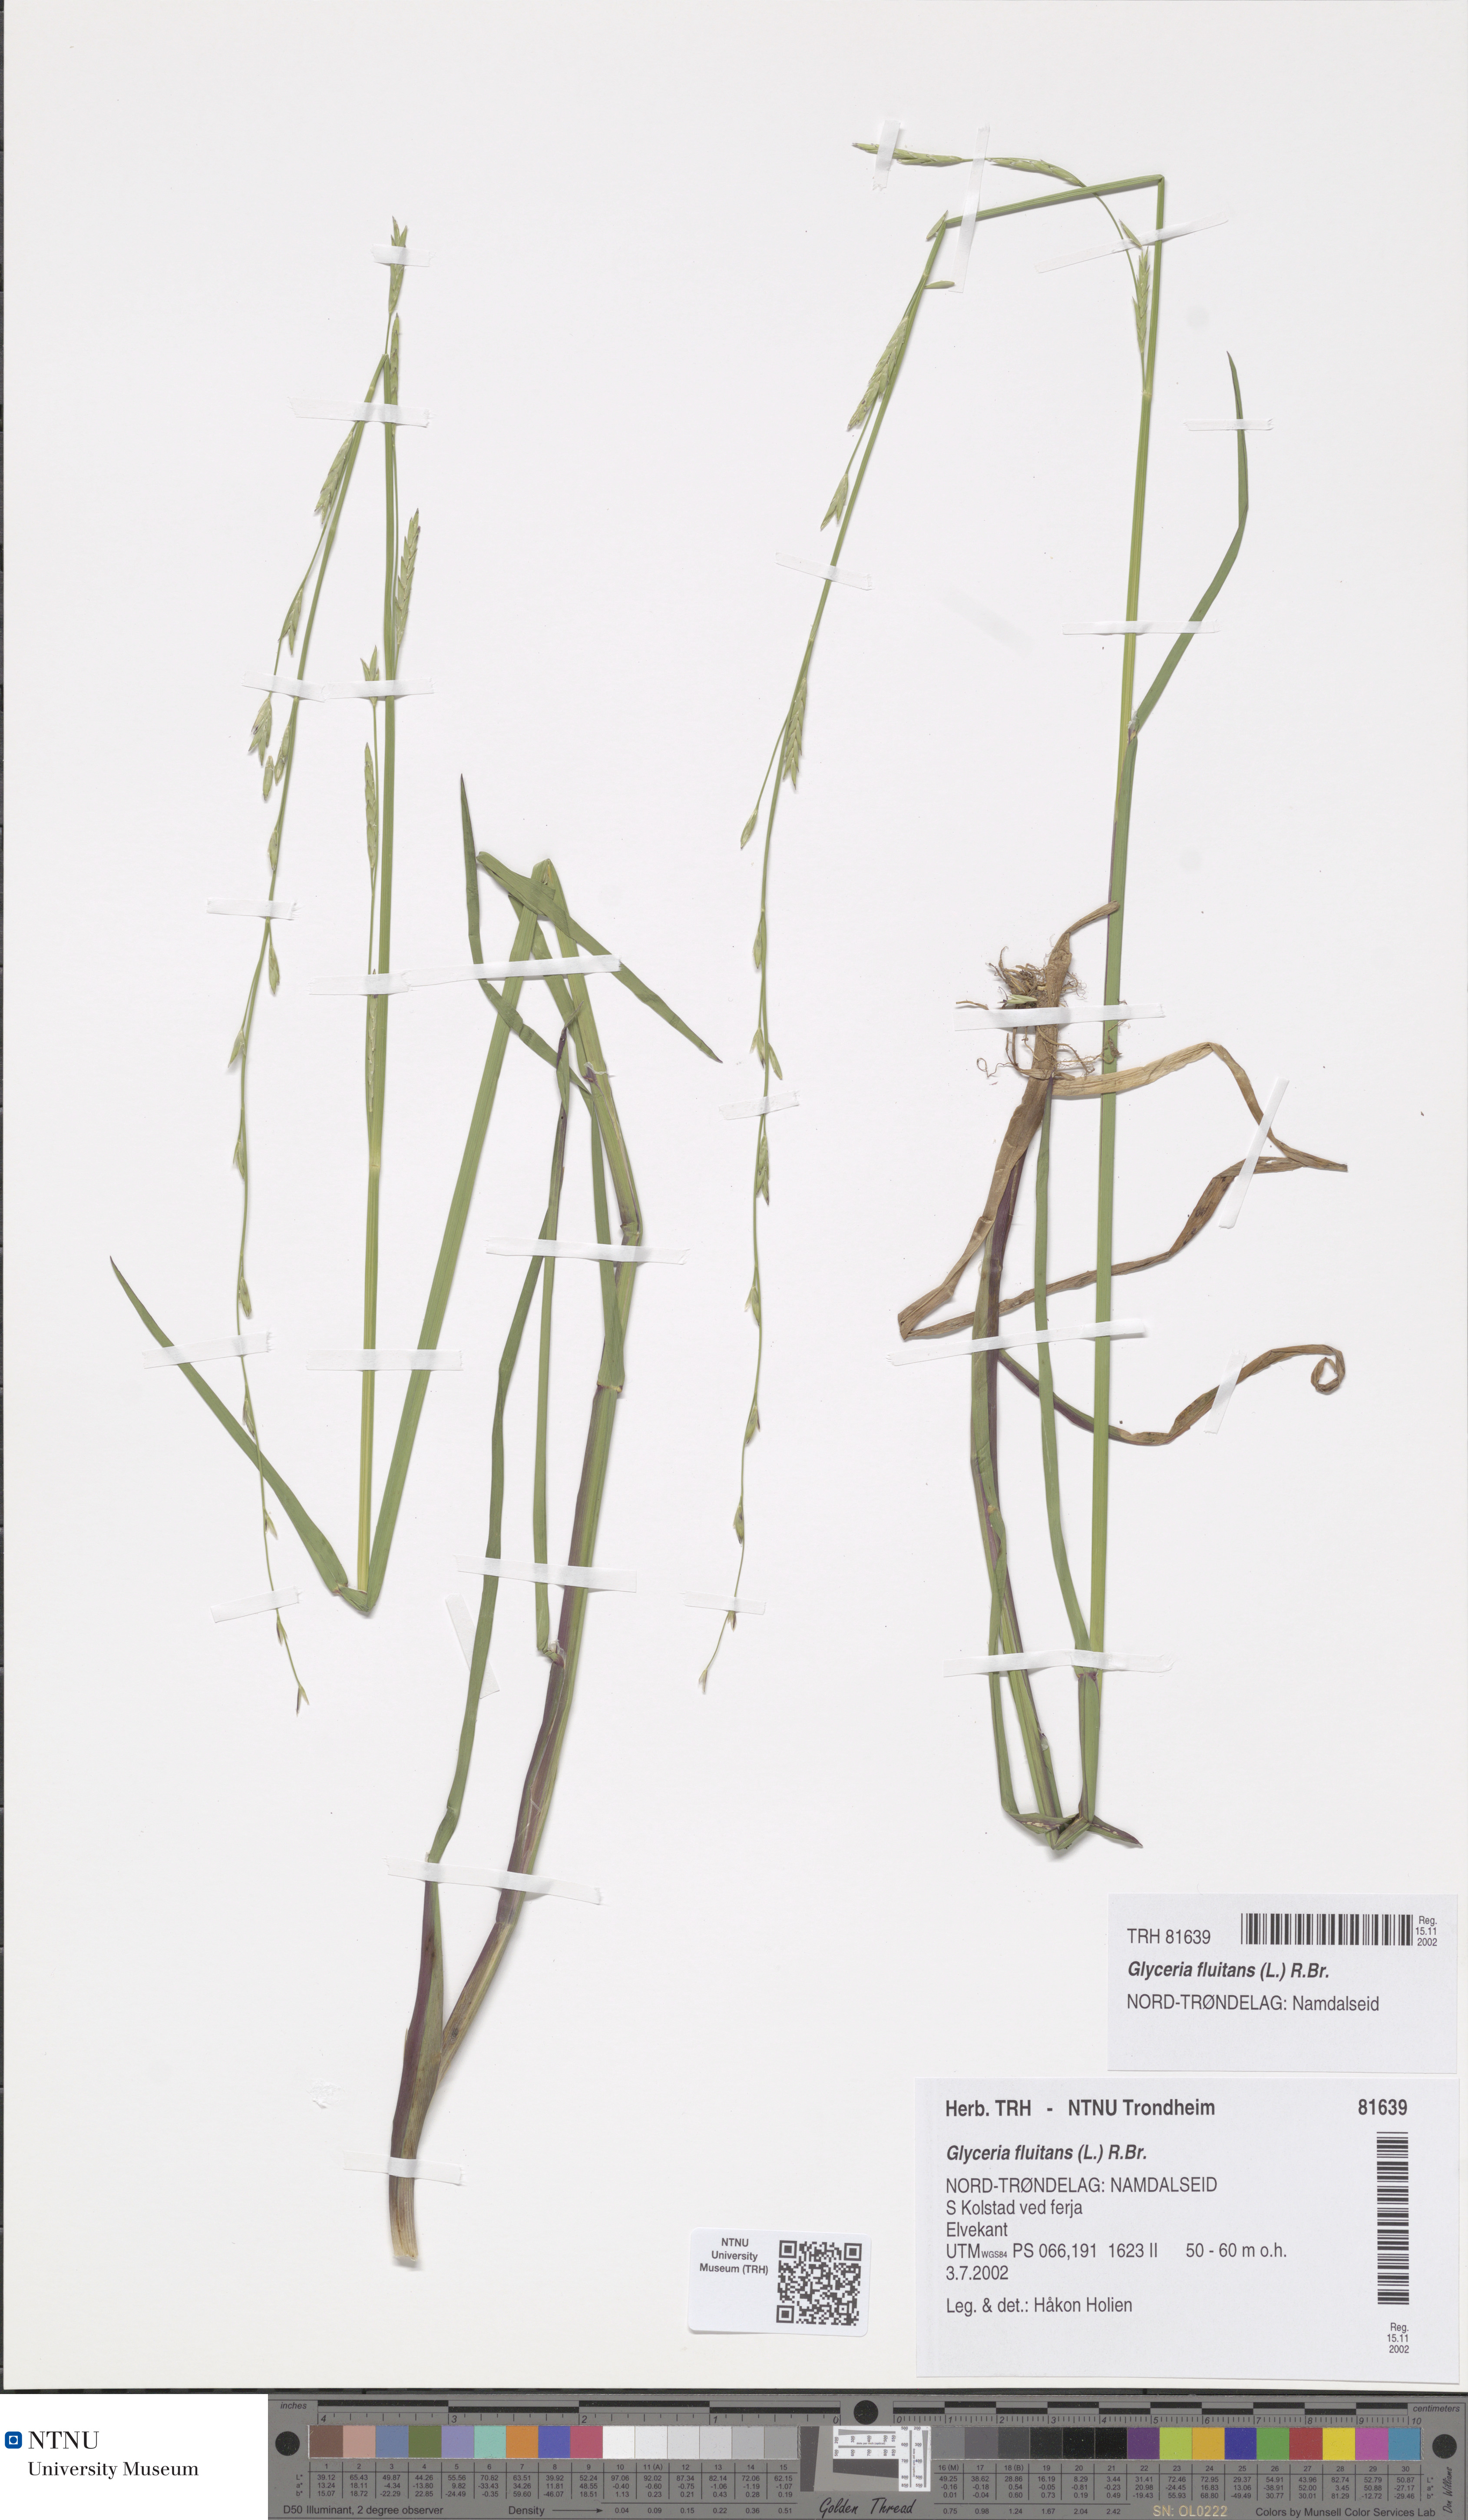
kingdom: Plantae
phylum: Tracheophyta
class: Liliopsida
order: Poales
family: Poaceae
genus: Glyceria
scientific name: Glyceria fluitans
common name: Floating sweet-grass
